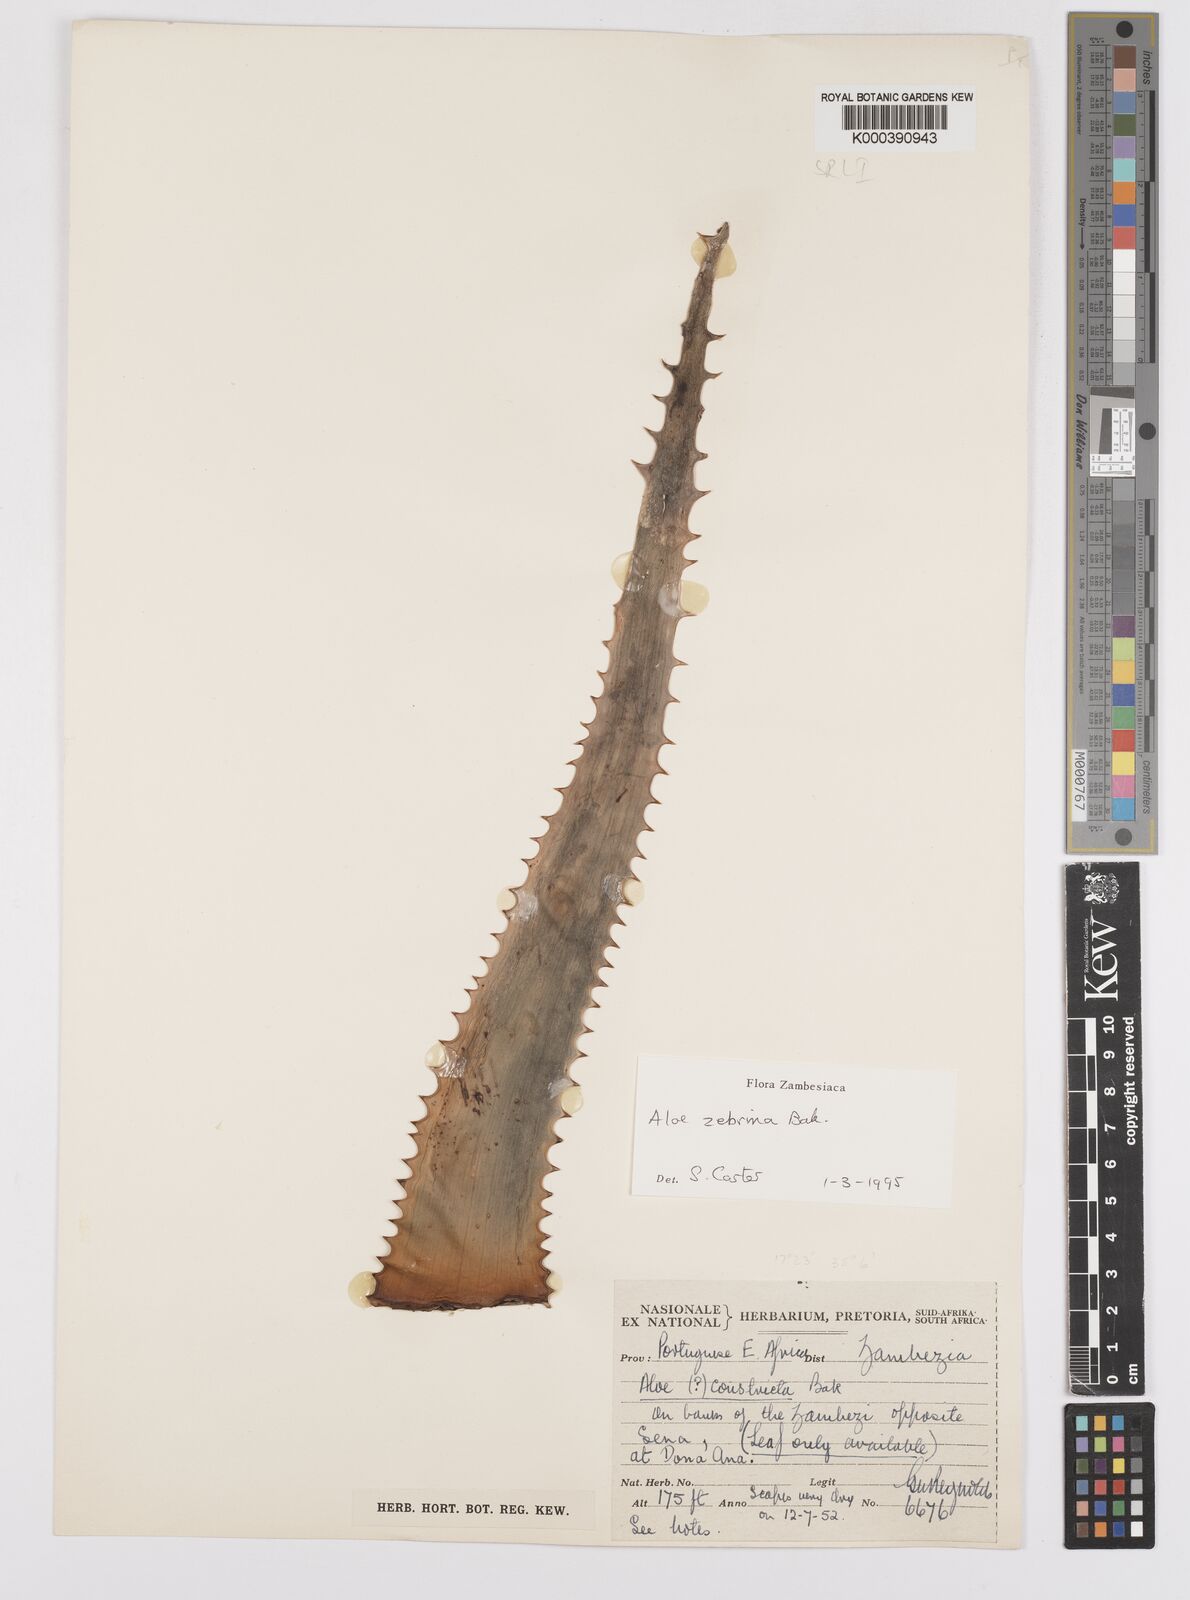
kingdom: Plantae
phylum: Tracheophyta
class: Liliopsida
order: Asparagales
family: Asphodelaceae
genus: Aloe
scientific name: Aloe zebrina
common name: Zebra-leaf aloe
